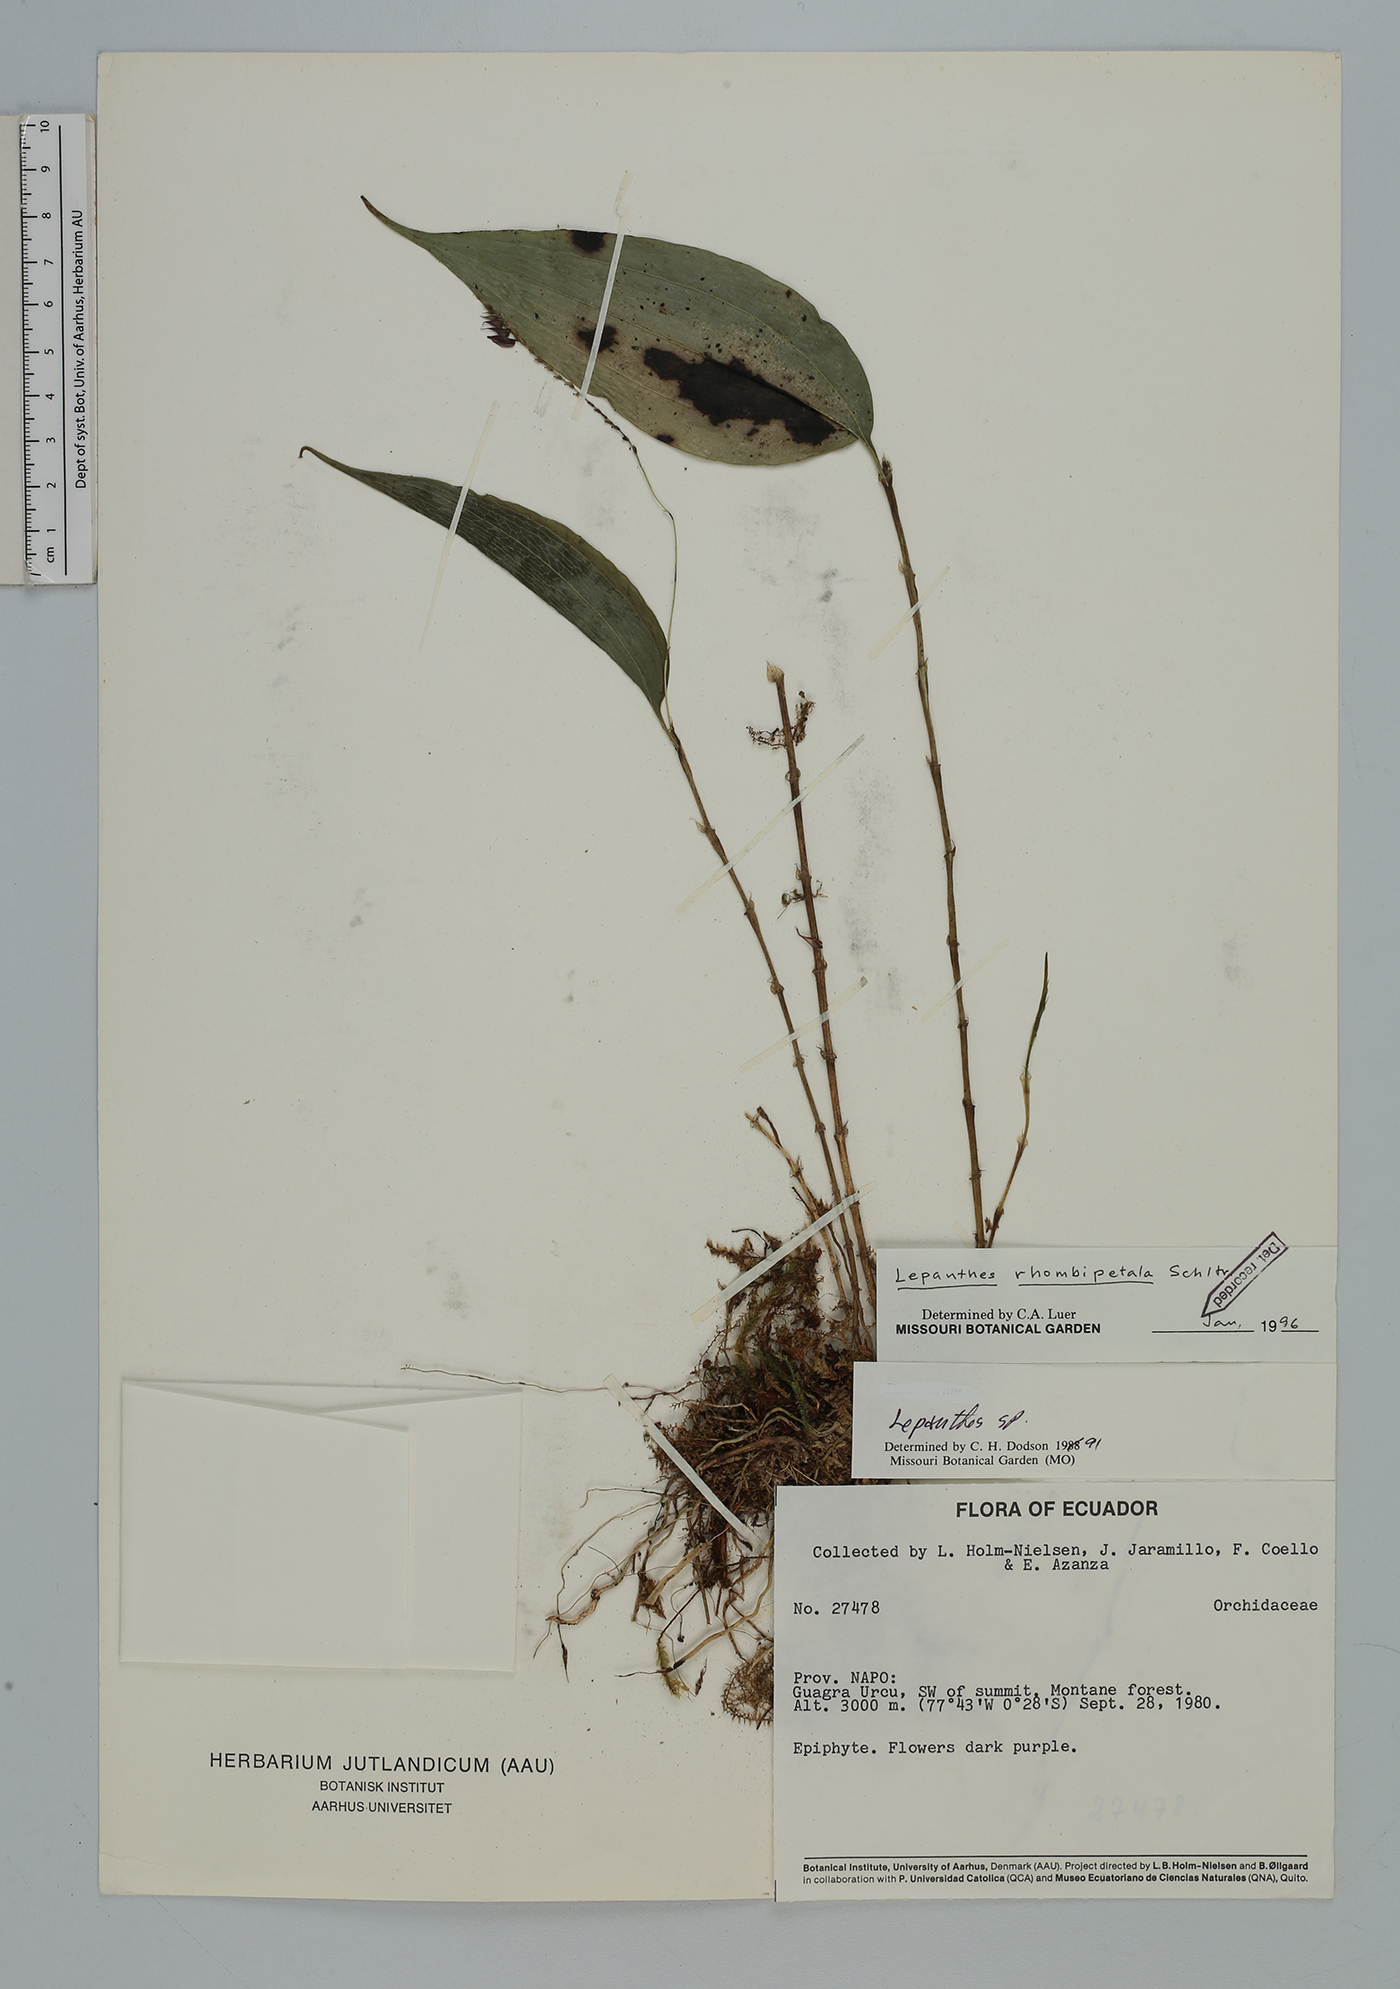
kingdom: Plantae
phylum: Tracheophyta
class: Liliopsida
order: Asparagales
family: Orchidaceae
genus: Lepanthes
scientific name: Lepanthes rhombipetala
